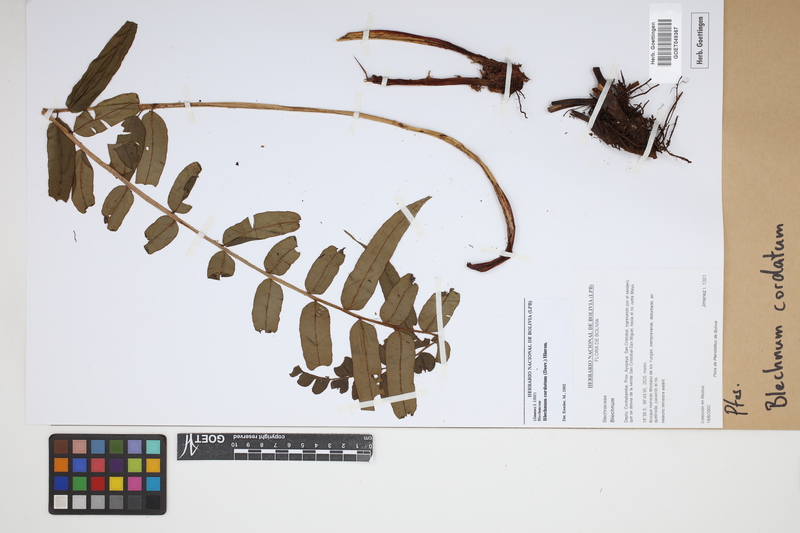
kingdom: Plantae
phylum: Tracheophyta
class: Polypodiopsida
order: Polypodiales
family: Blechnaceae
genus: Parablechnum
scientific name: Parablechnum cordatum
